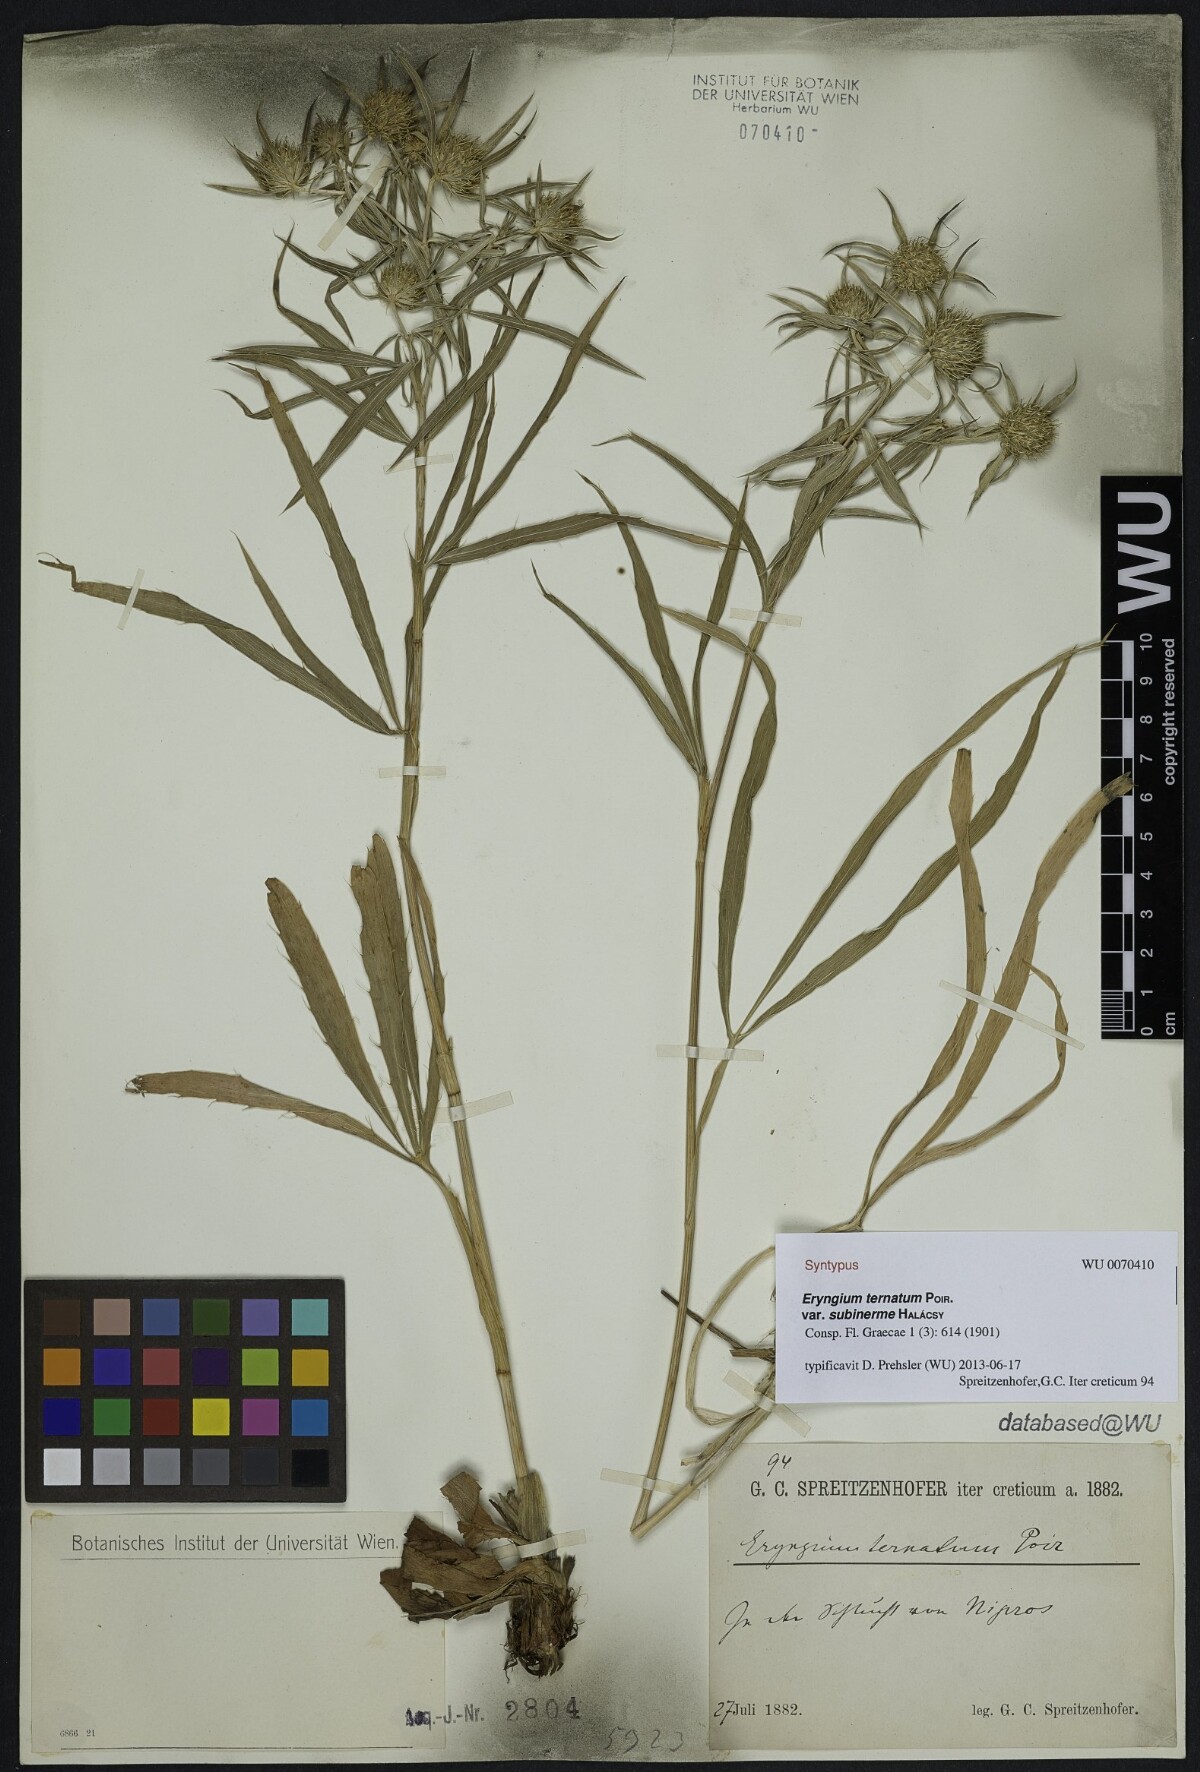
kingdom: Plantae
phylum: Tracheophyta
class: Magnoliopsida
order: Apiales
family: Apiaceae
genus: Eryngium
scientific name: Eryngium ternatum
